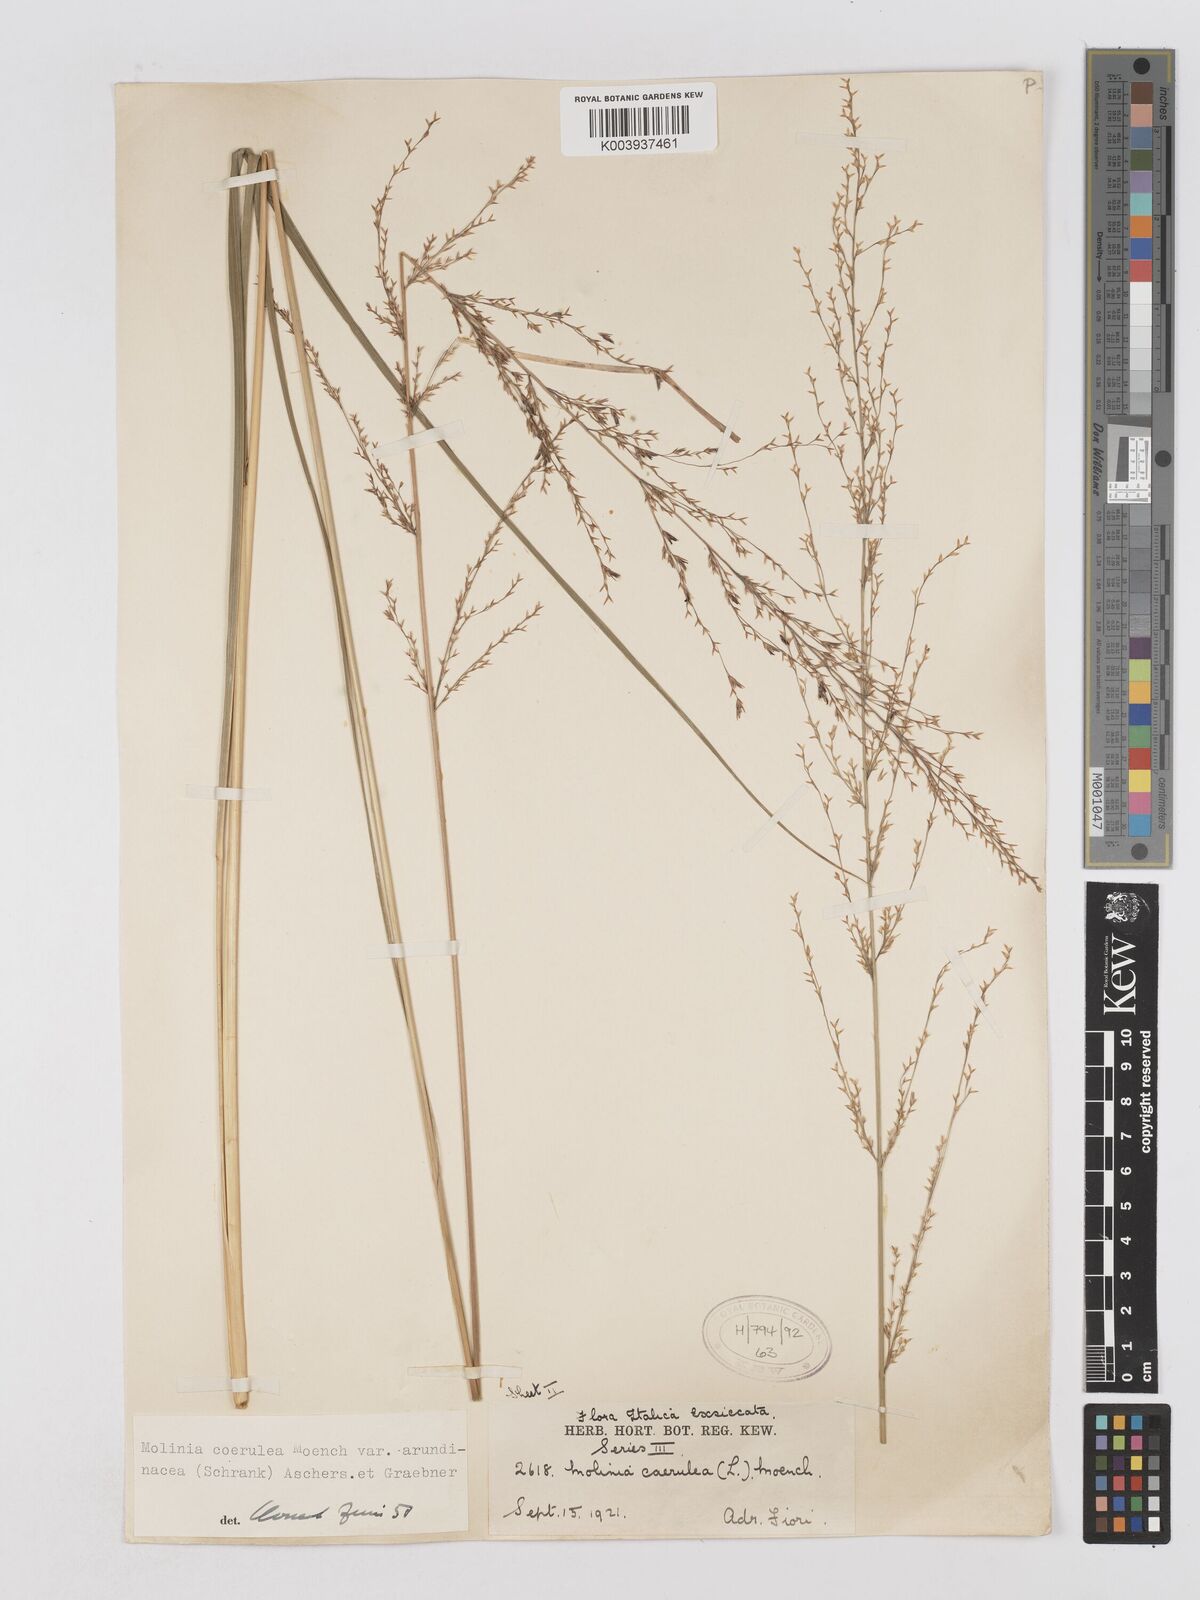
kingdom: Plantae
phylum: Tracheophyta
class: Liliopsida
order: Poales
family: Poaceae
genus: Molinia
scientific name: Molinia caerulea
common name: Purple moor-grass
